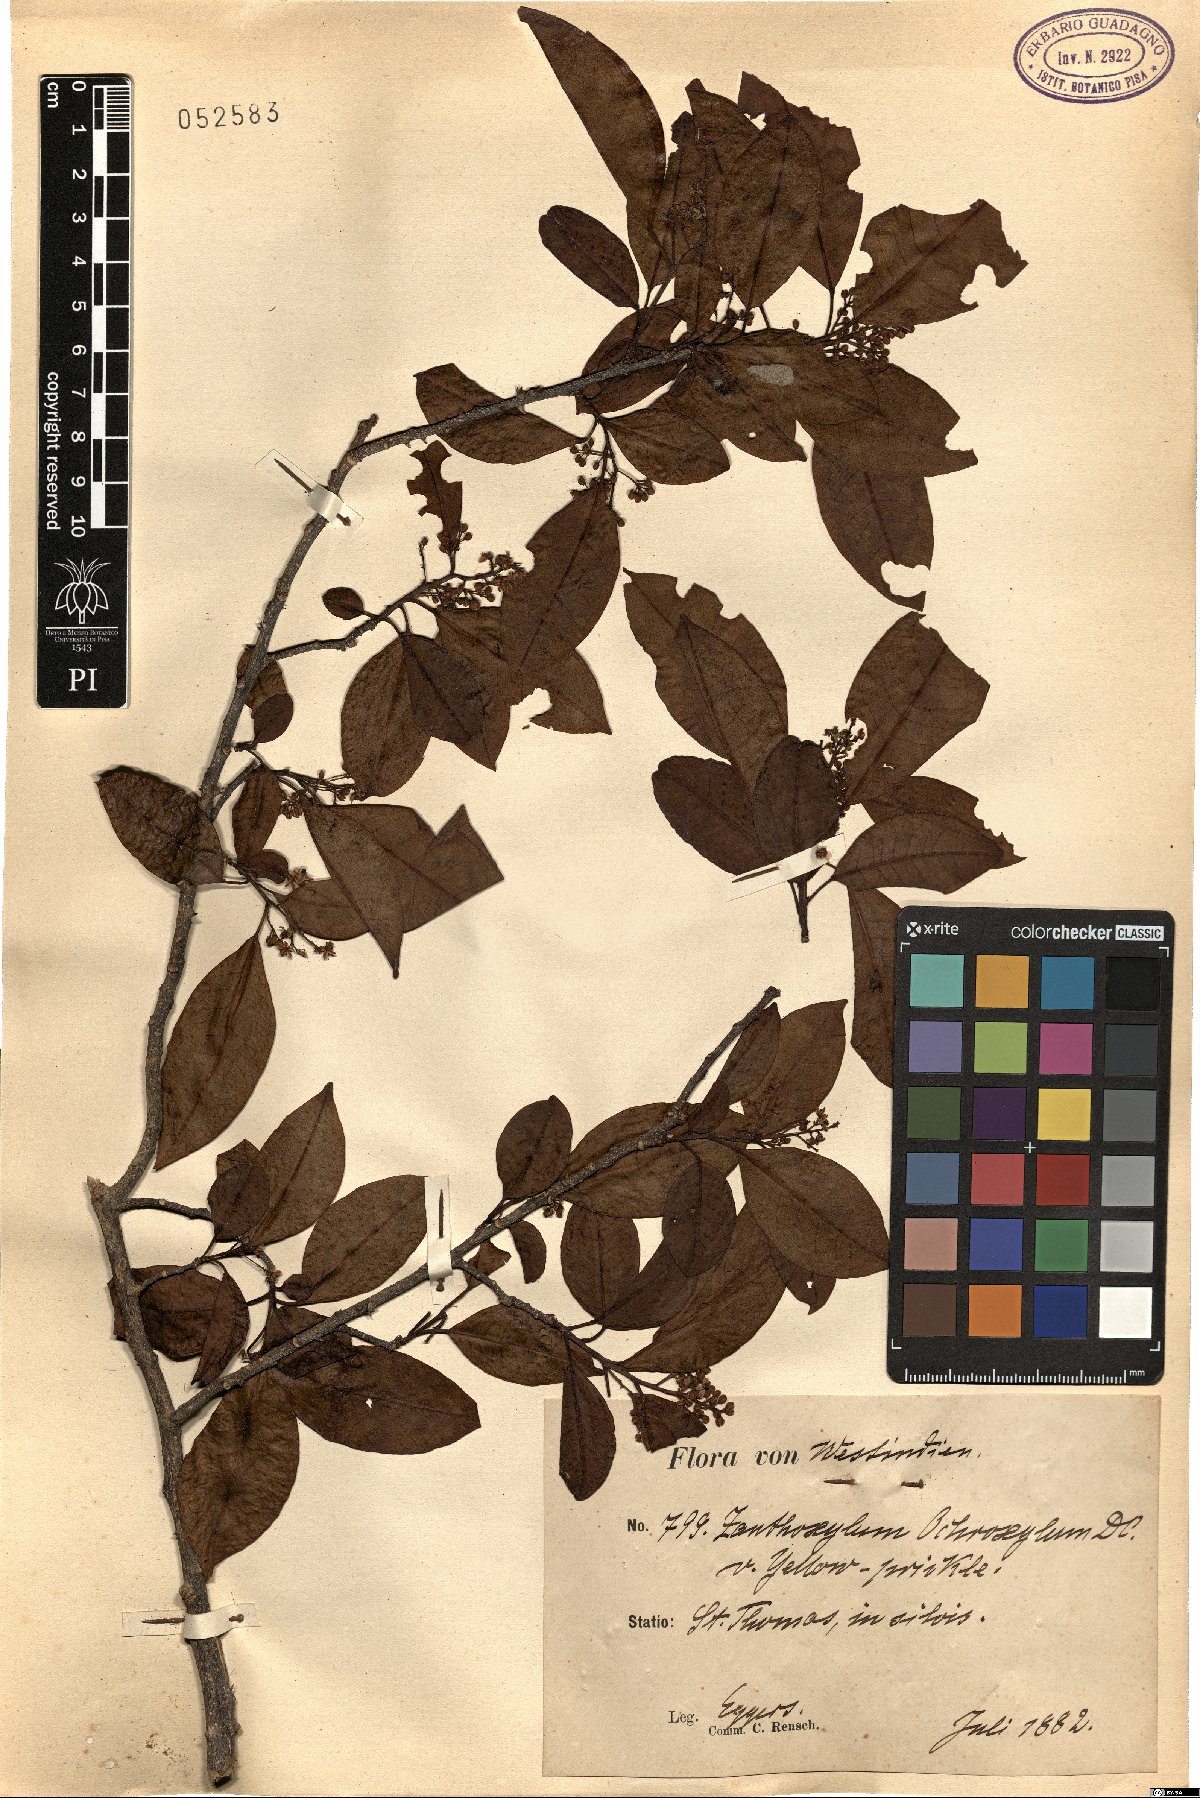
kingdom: Plantae
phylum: Tracheophyta
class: Magnoliopsida
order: Sapindales
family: Rutaceae
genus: Zanthoxylum
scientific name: Zanthoxylum schreberi
